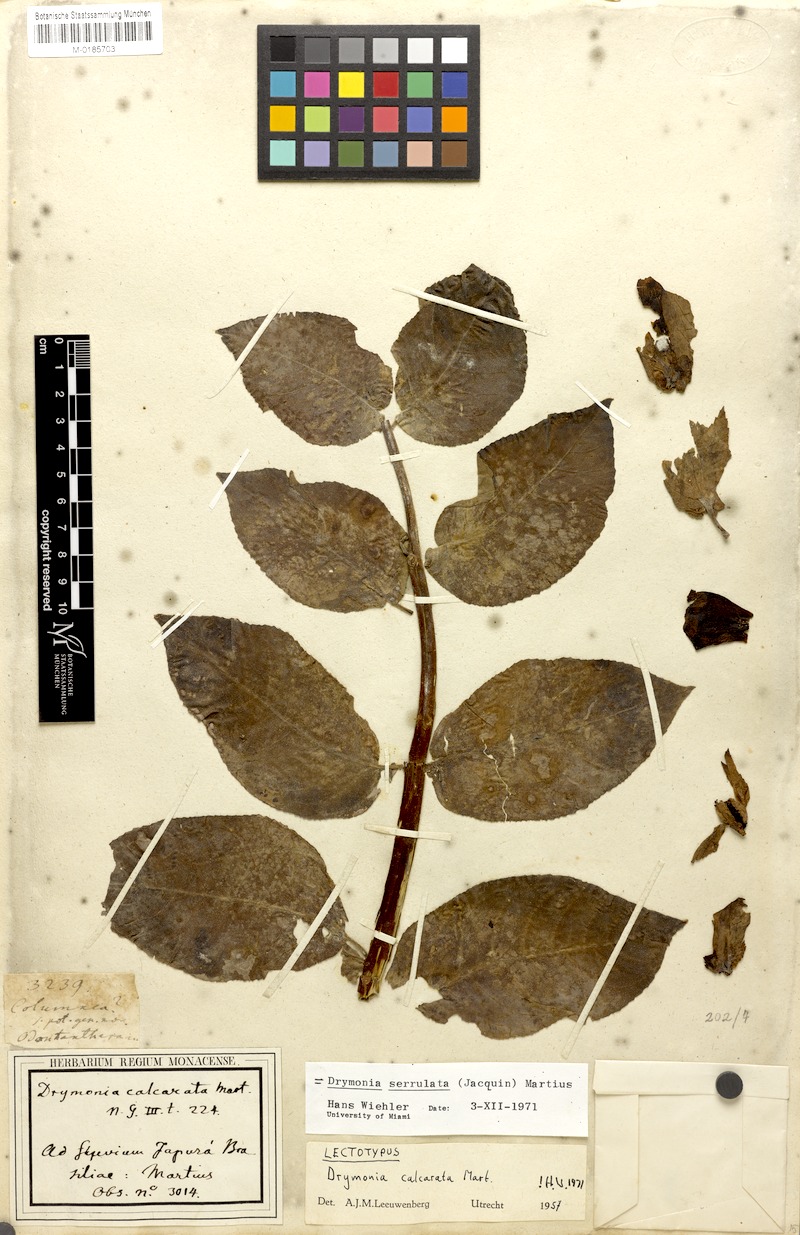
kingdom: Plantae
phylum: Tracheophyta
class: Magnoliopsida
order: Lamiales
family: Gesneriaceae
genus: Drymonia
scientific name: Drymonia serrulata
